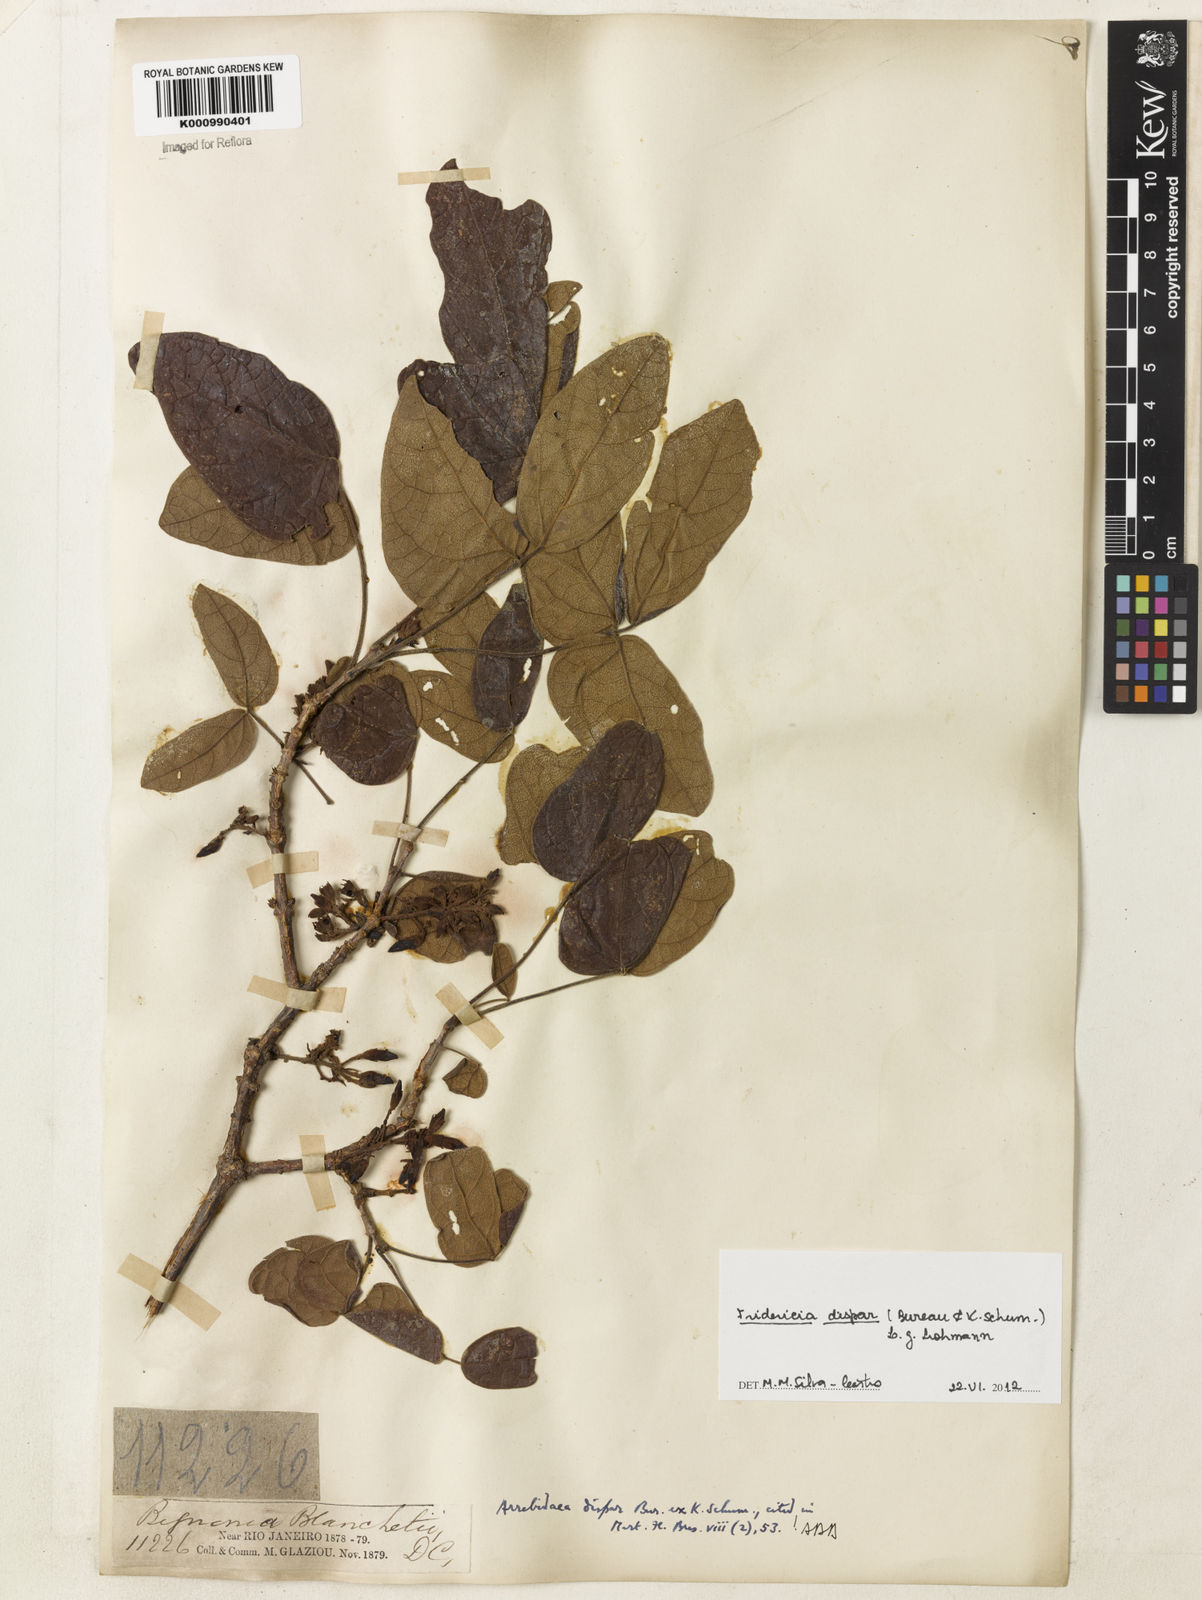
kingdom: Plantae
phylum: Tracheophyta
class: Magnoliopsida
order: Lamiales
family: Bignoniaceae
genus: Fridericia
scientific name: Fridericia dispar
